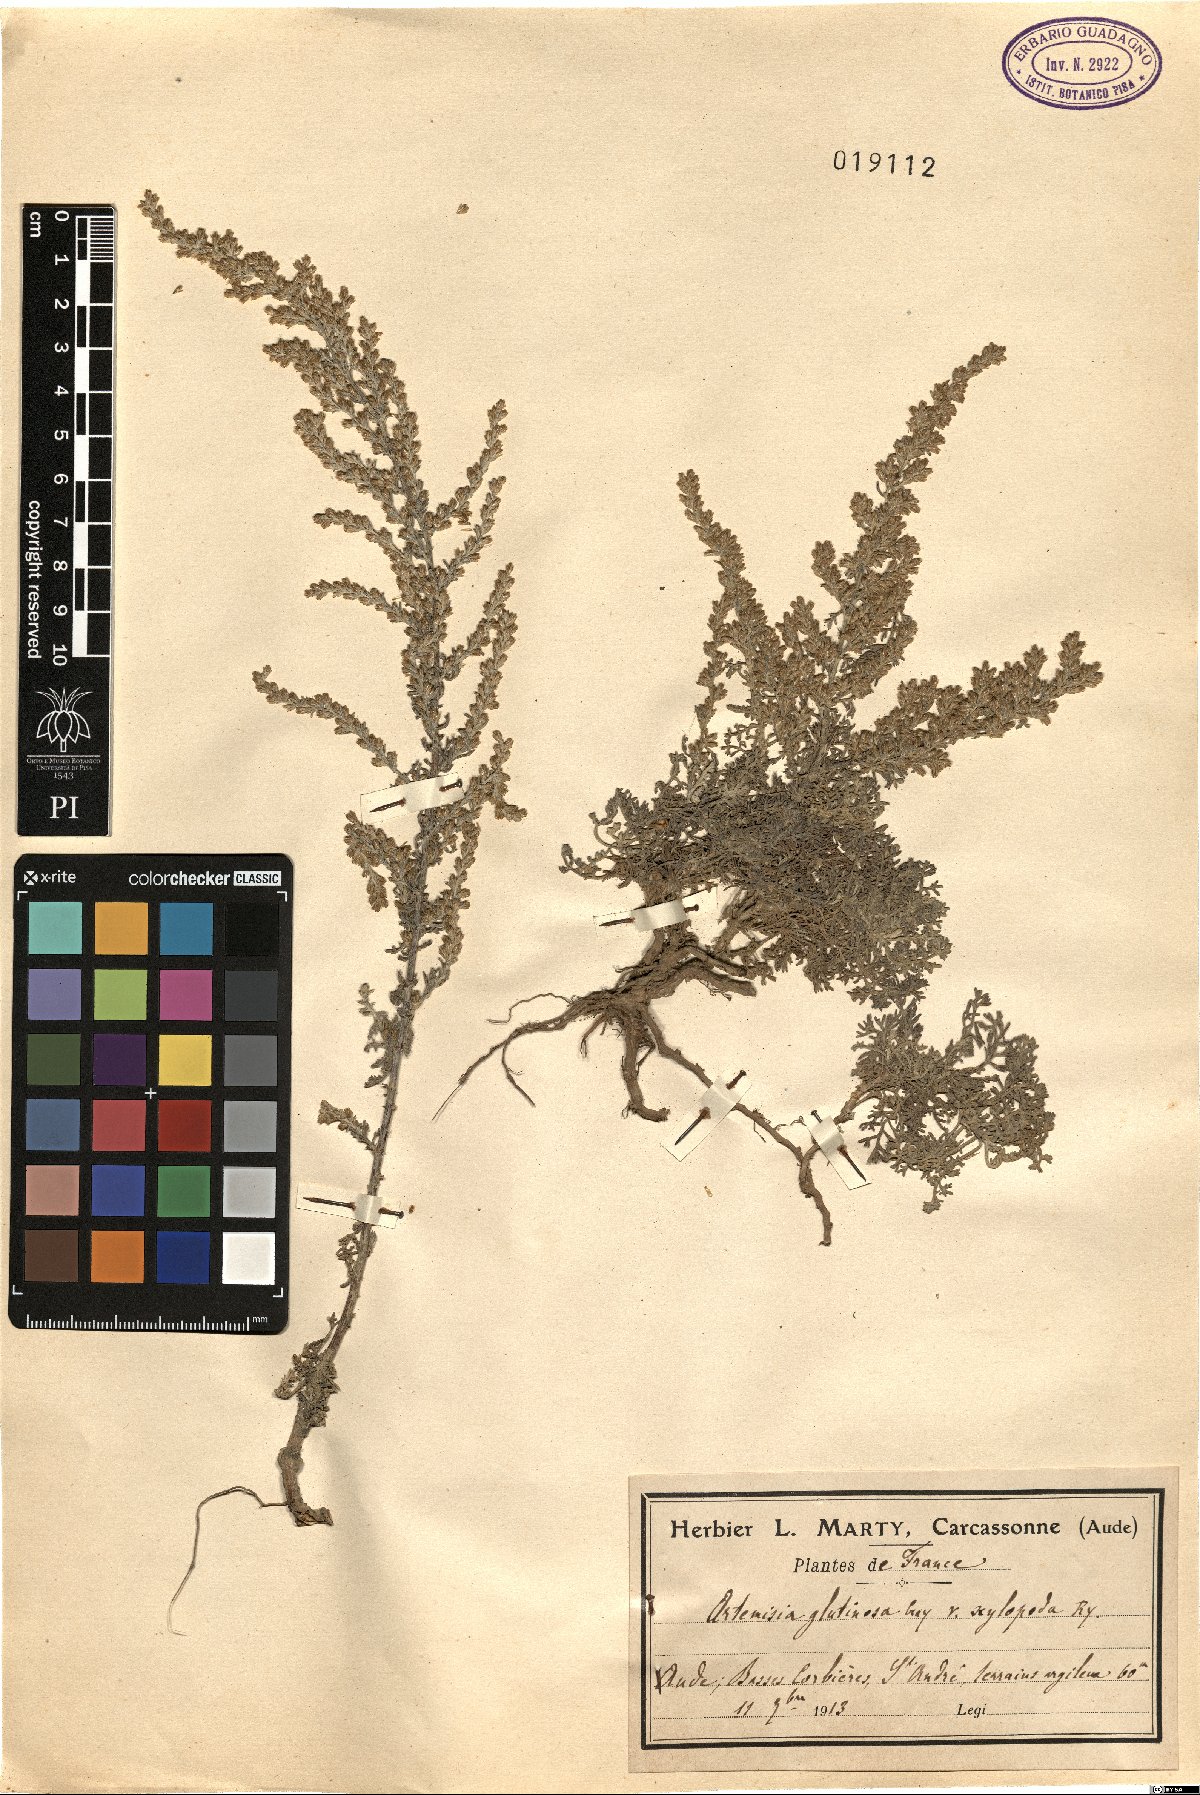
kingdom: Plantae
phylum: Tracheophyta
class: Magnoliopsida
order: Asterales
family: Asteraceae
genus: Artemisia
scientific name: Artemisia campestris
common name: Field wormwood
